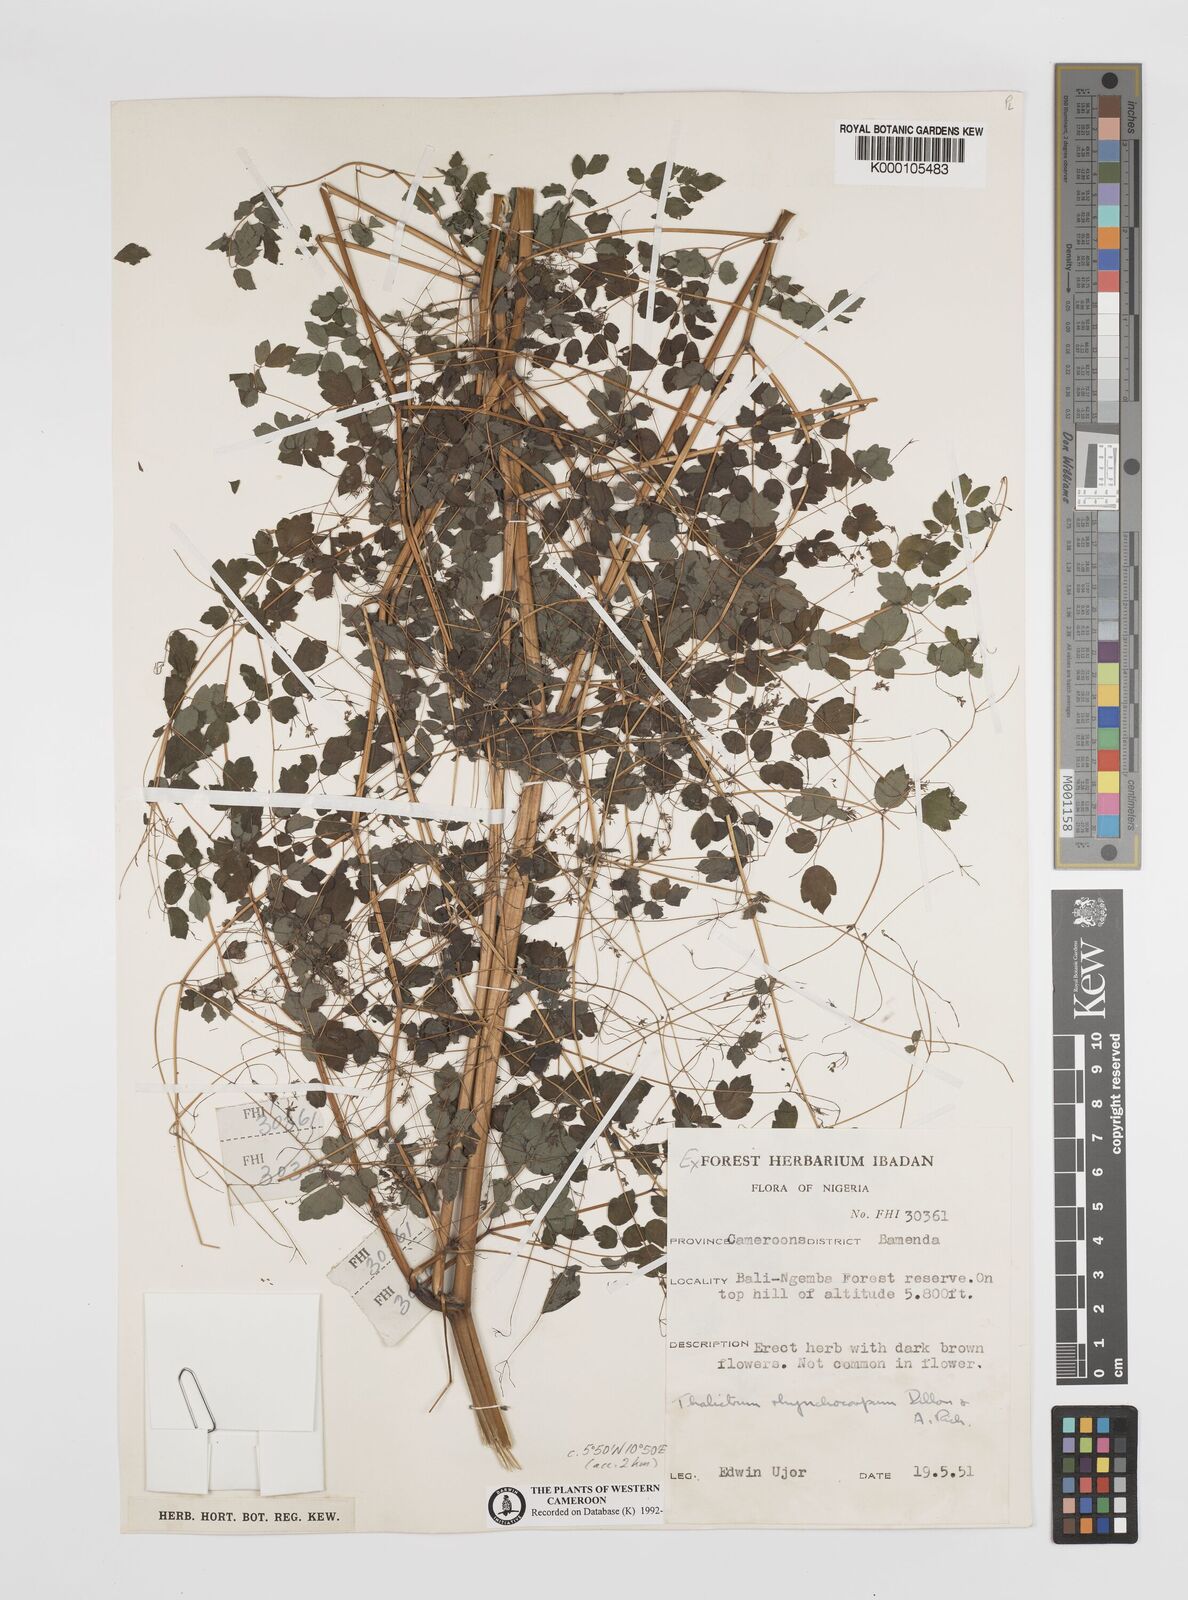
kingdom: Plantae
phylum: Tracheophyta
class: Magnoliopsida
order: Ranunculales
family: Ranunculaceae
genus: Thalictrum
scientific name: Thalictrum rhynchocarpum
